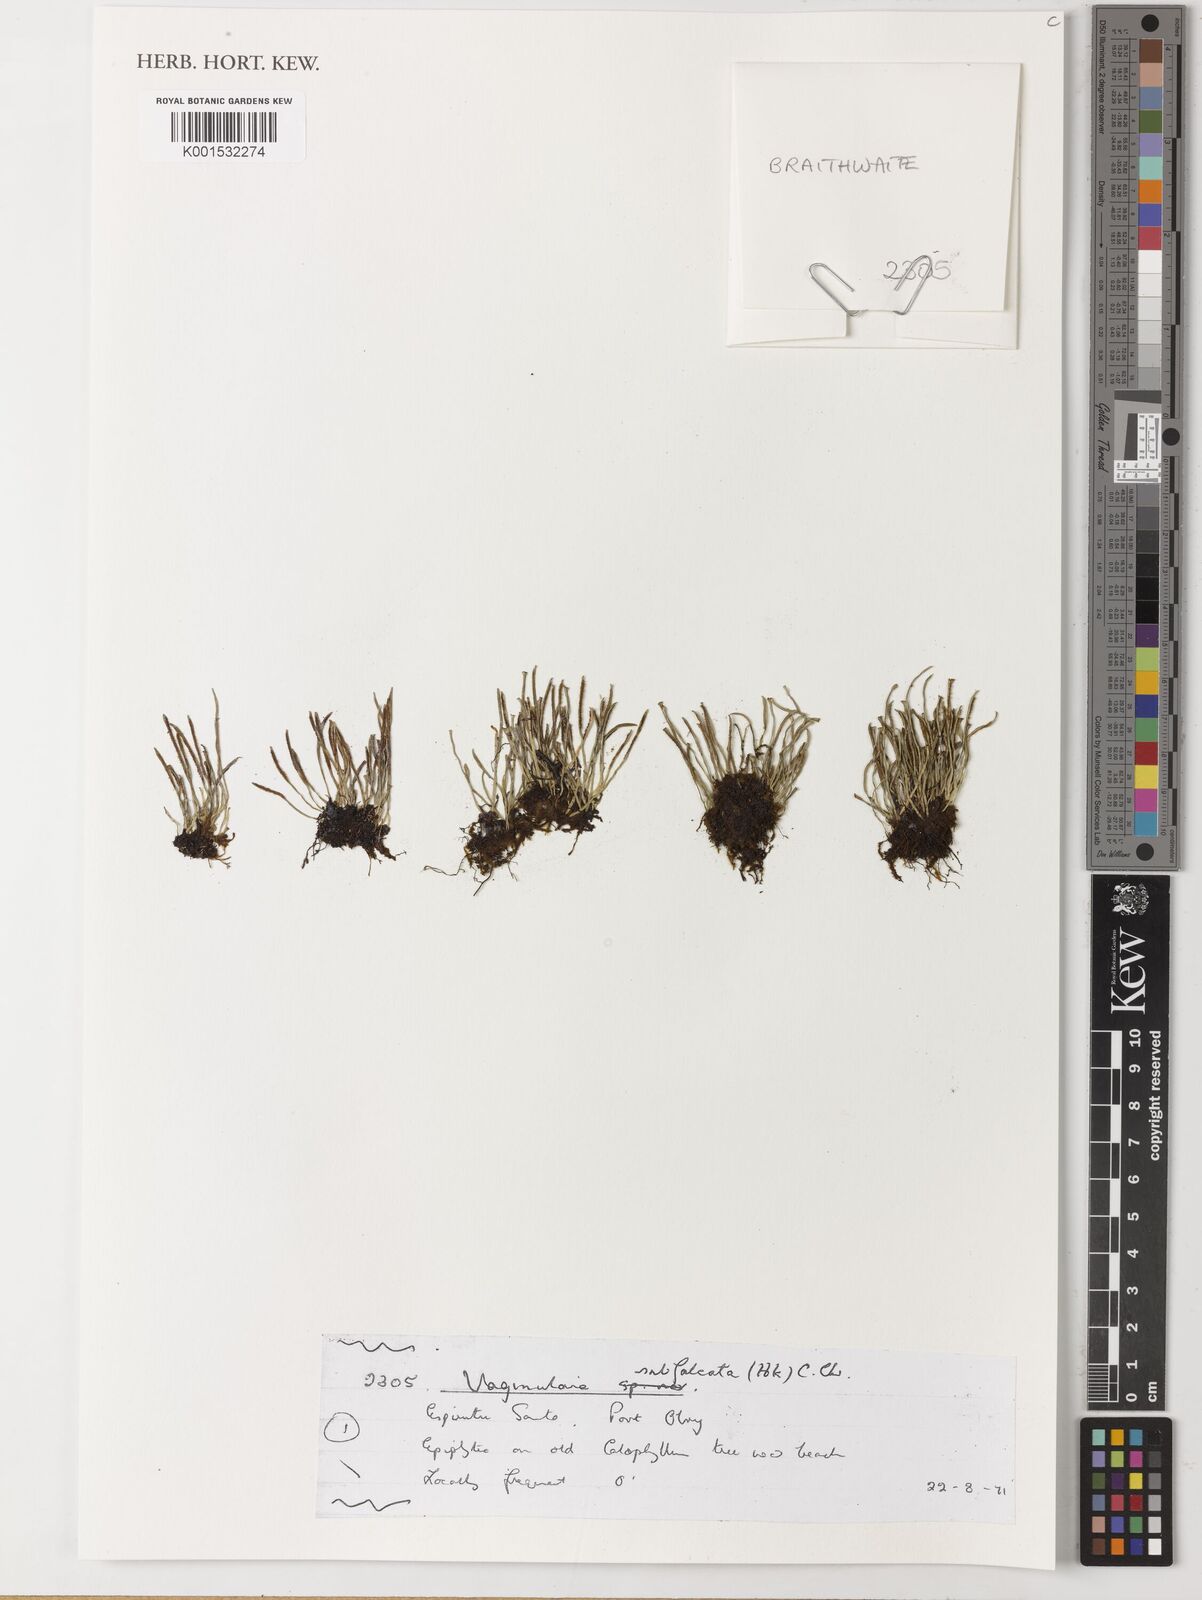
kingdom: Plantae
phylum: Tracheophyta
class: Polypodiopsida
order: Polypodiales
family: Pteridaceae
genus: Vaginularia
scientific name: Vaginularia subfalcata
